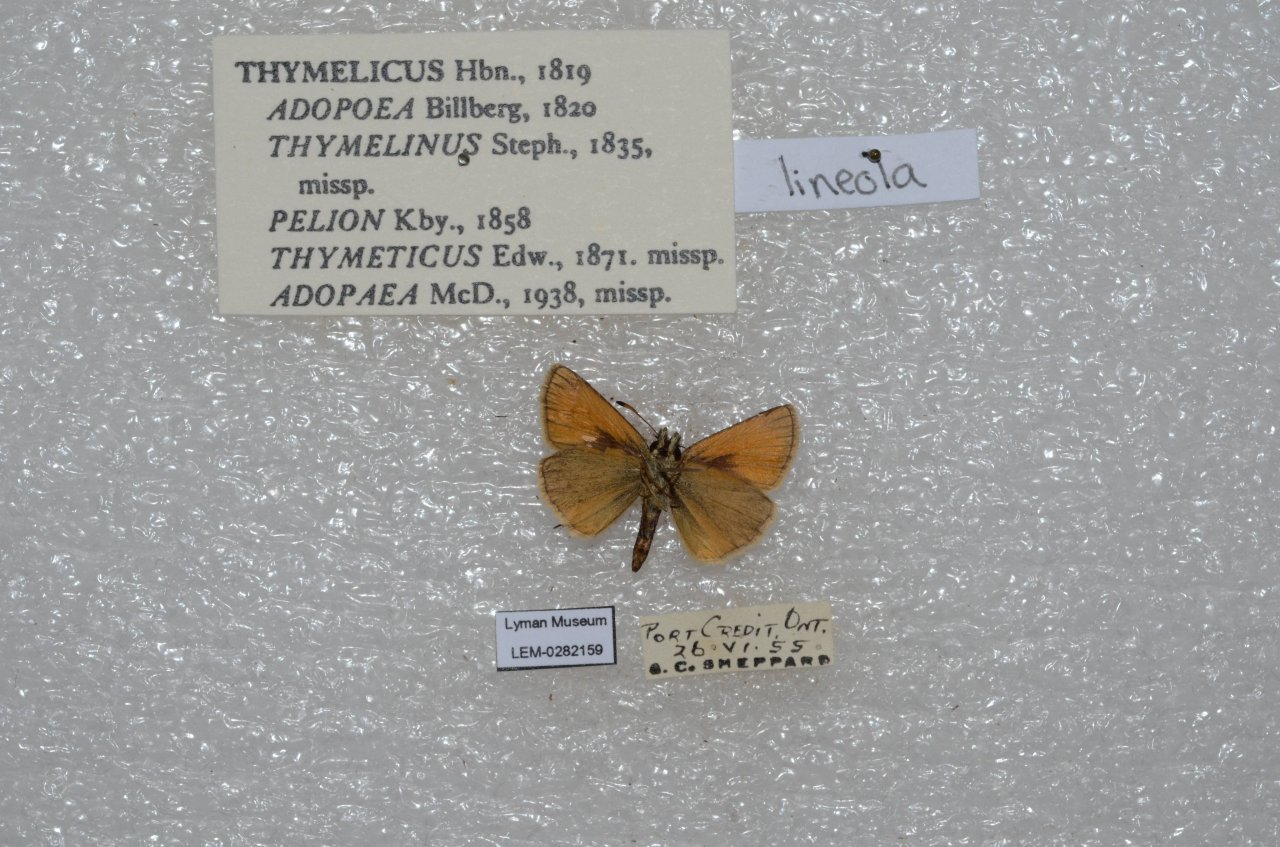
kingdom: Animalia
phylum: Arthropoda
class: Insecta
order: Lepidoptera
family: Hesperiidae
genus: Thymelicus
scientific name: Thymelicus lineola
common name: European Skipper
